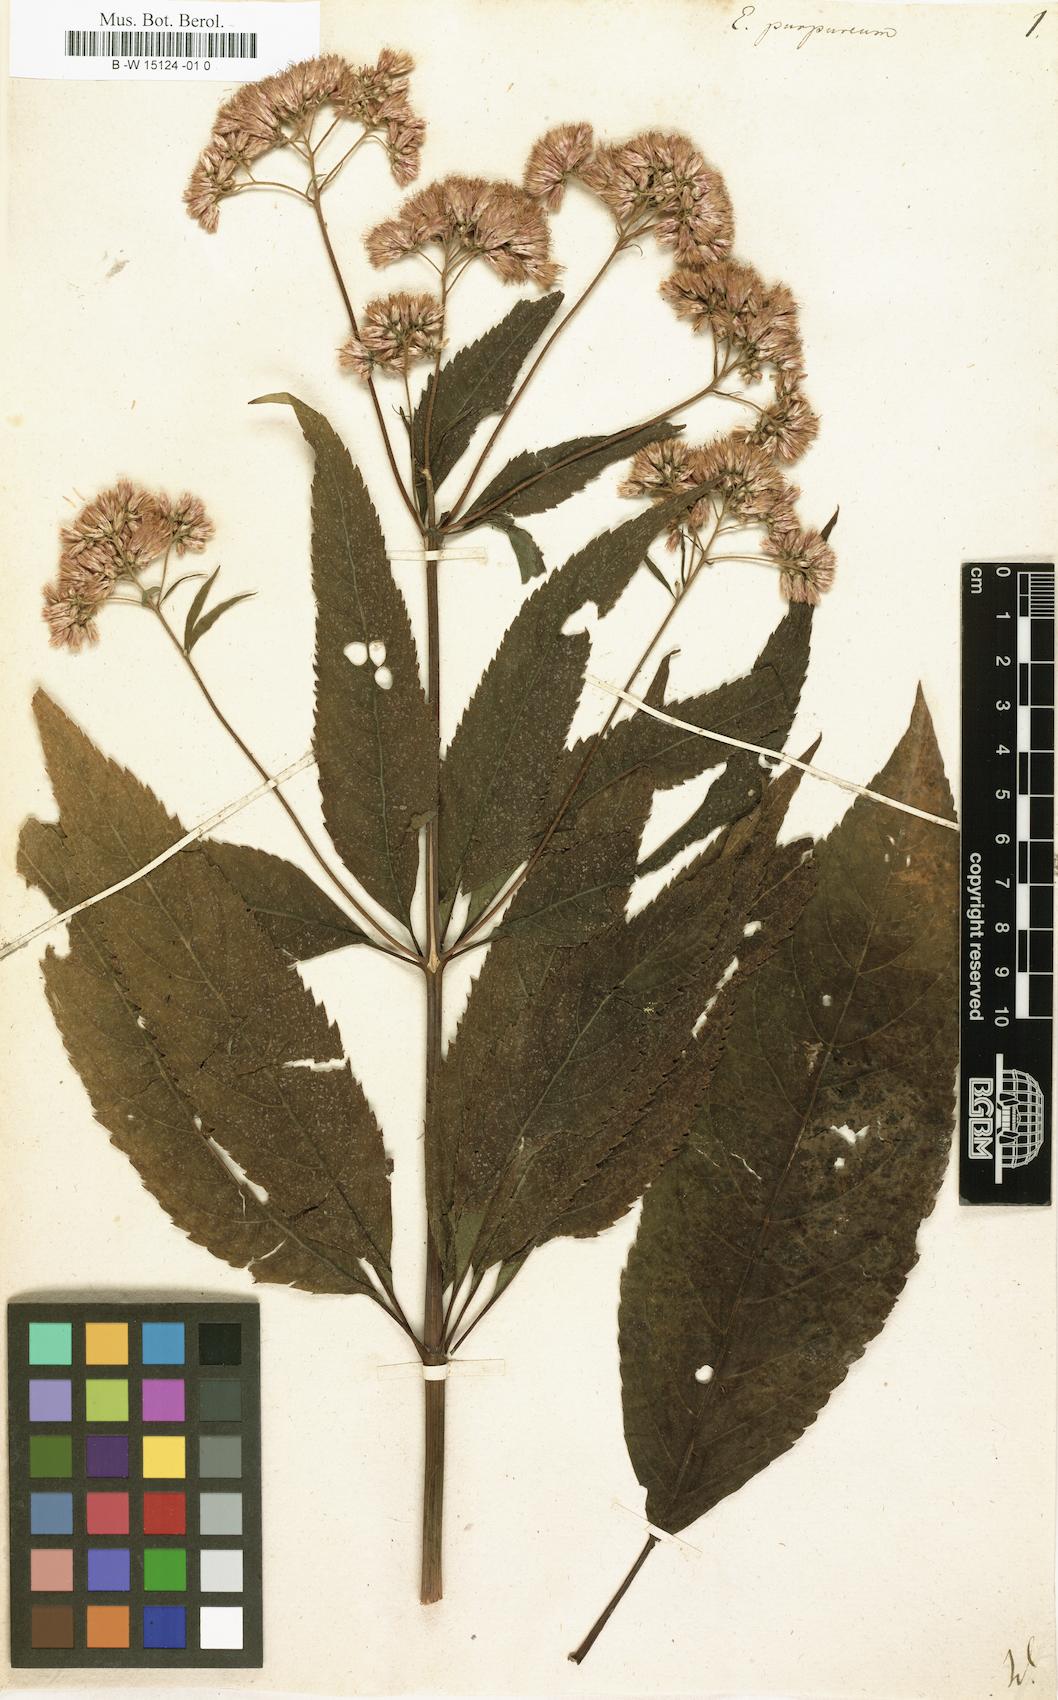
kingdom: Plantae
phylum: Tracheophyta
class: Magnoliopsida
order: Asterales
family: Asteraceae
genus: Eupatorium
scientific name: Eupatorium purpureum
